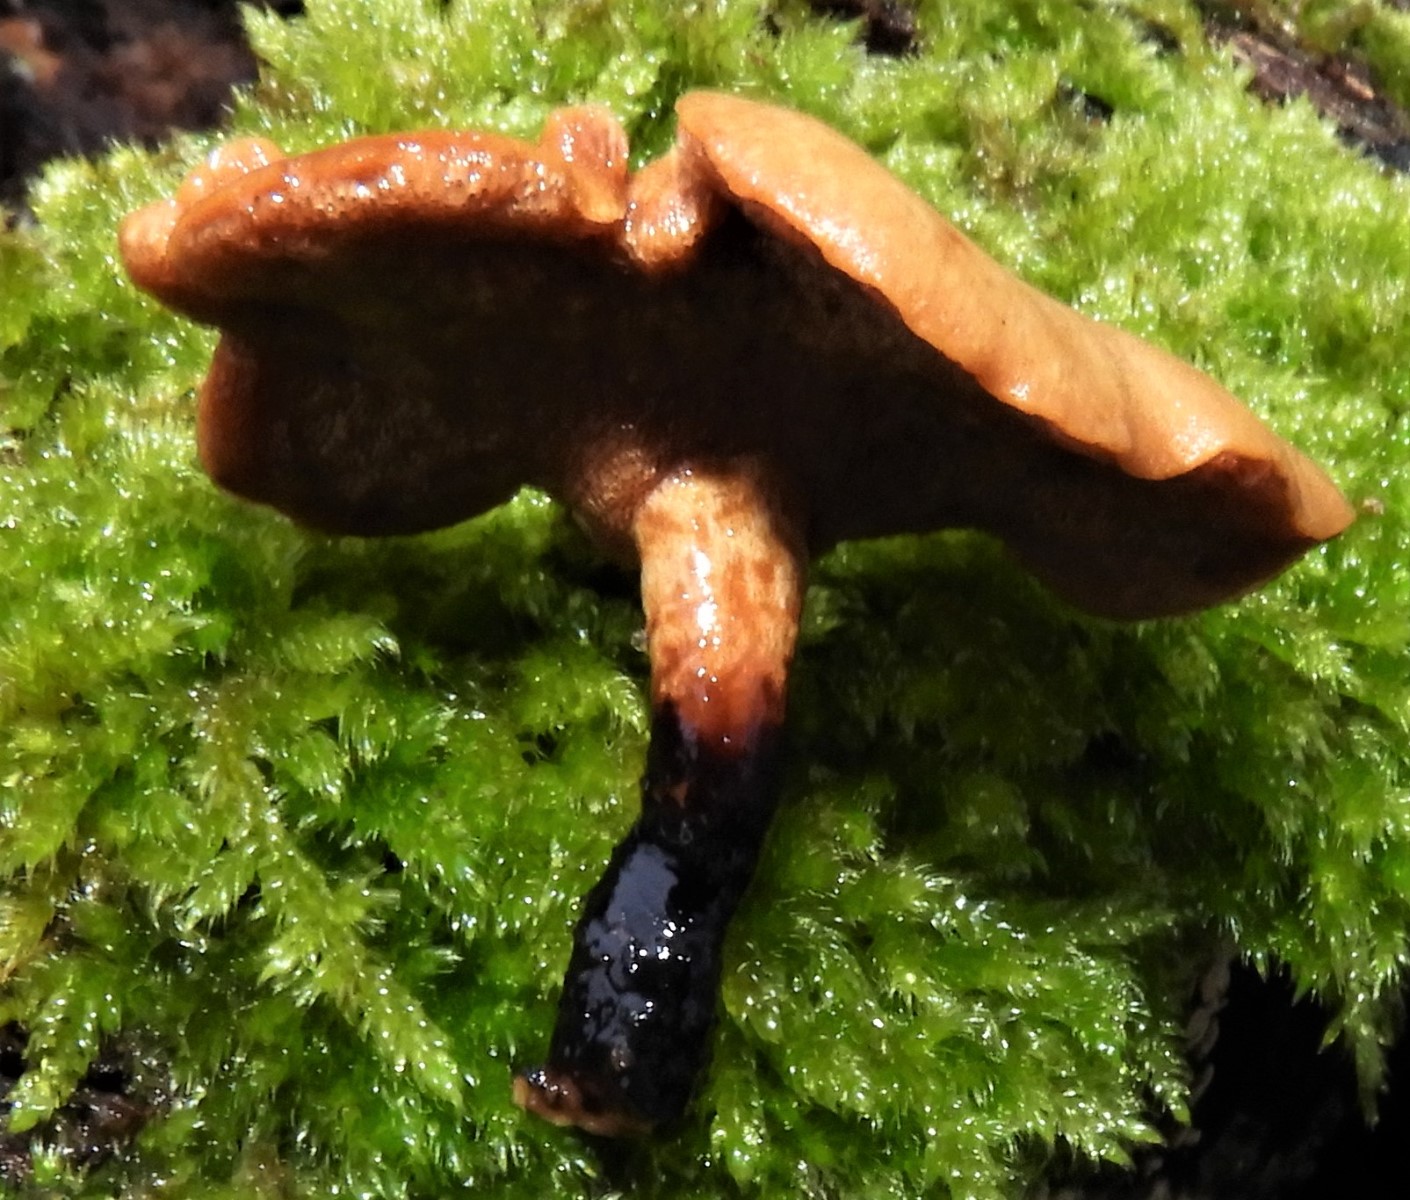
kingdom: Fungi
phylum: Basidiomycota
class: Agaricomycetes
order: Polyporales
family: Polyporaceae
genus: Cerioporus
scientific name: Cerioporus varius
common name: foranderlig stilkporesvamp
